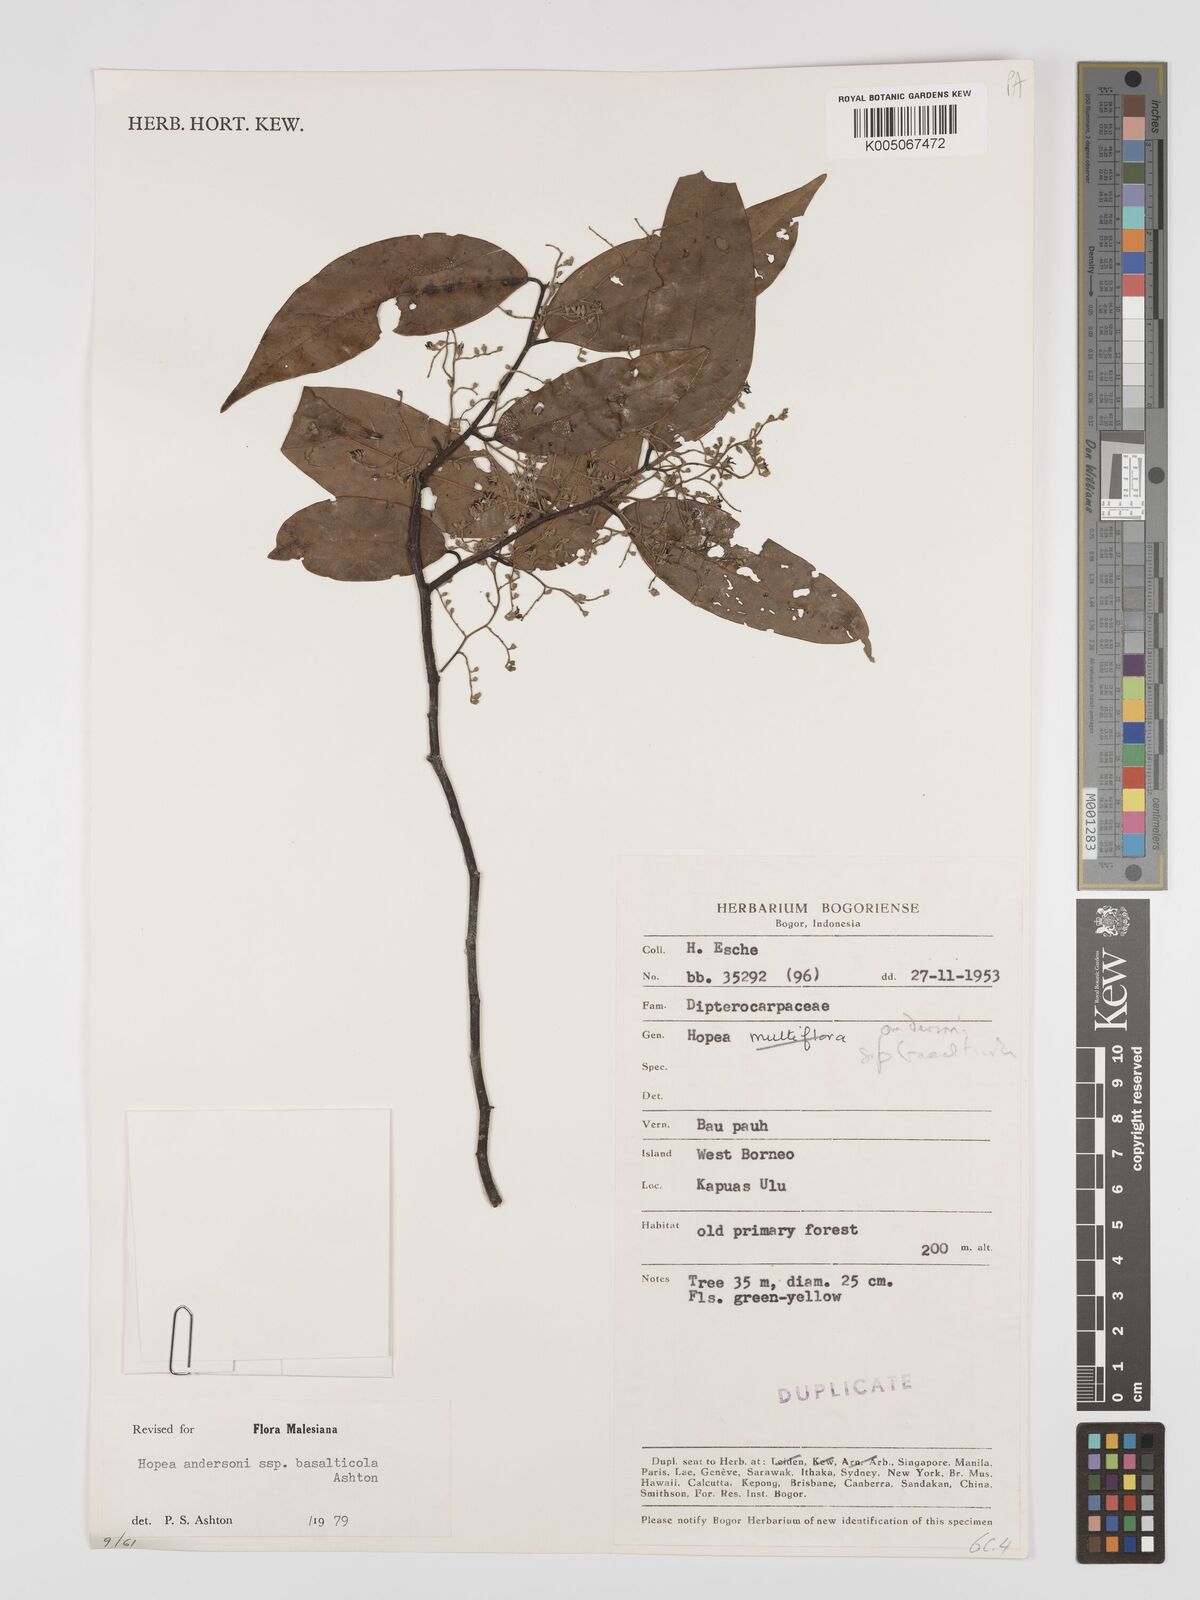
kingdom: Plantae
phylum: Tracheophyta
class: Magnoliopsida
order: Malvales
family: Dipterocarpaceae
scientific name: Dipterocarpaceae
